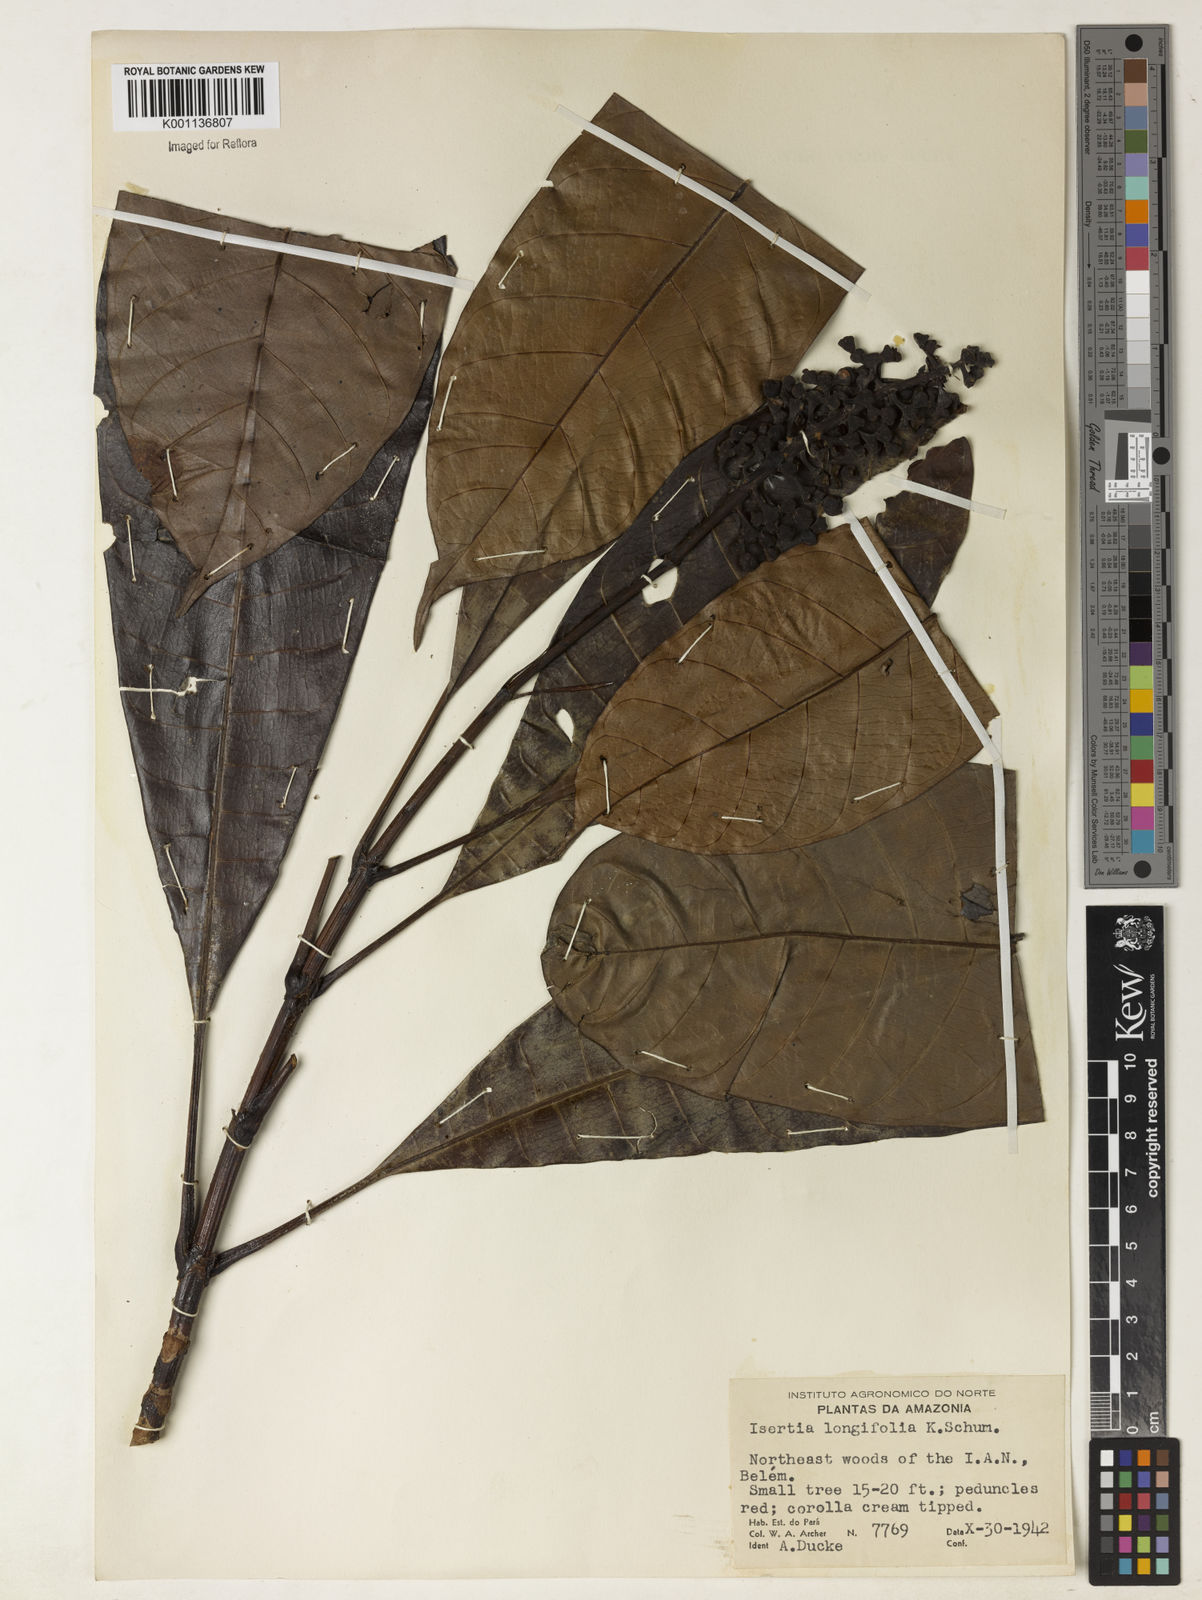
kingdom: Plantae
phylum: Tracheophyta
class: Magnoliopsida
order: Gentianales
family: Rubiaceae
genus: Isertia
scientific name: Isertia longifolia
